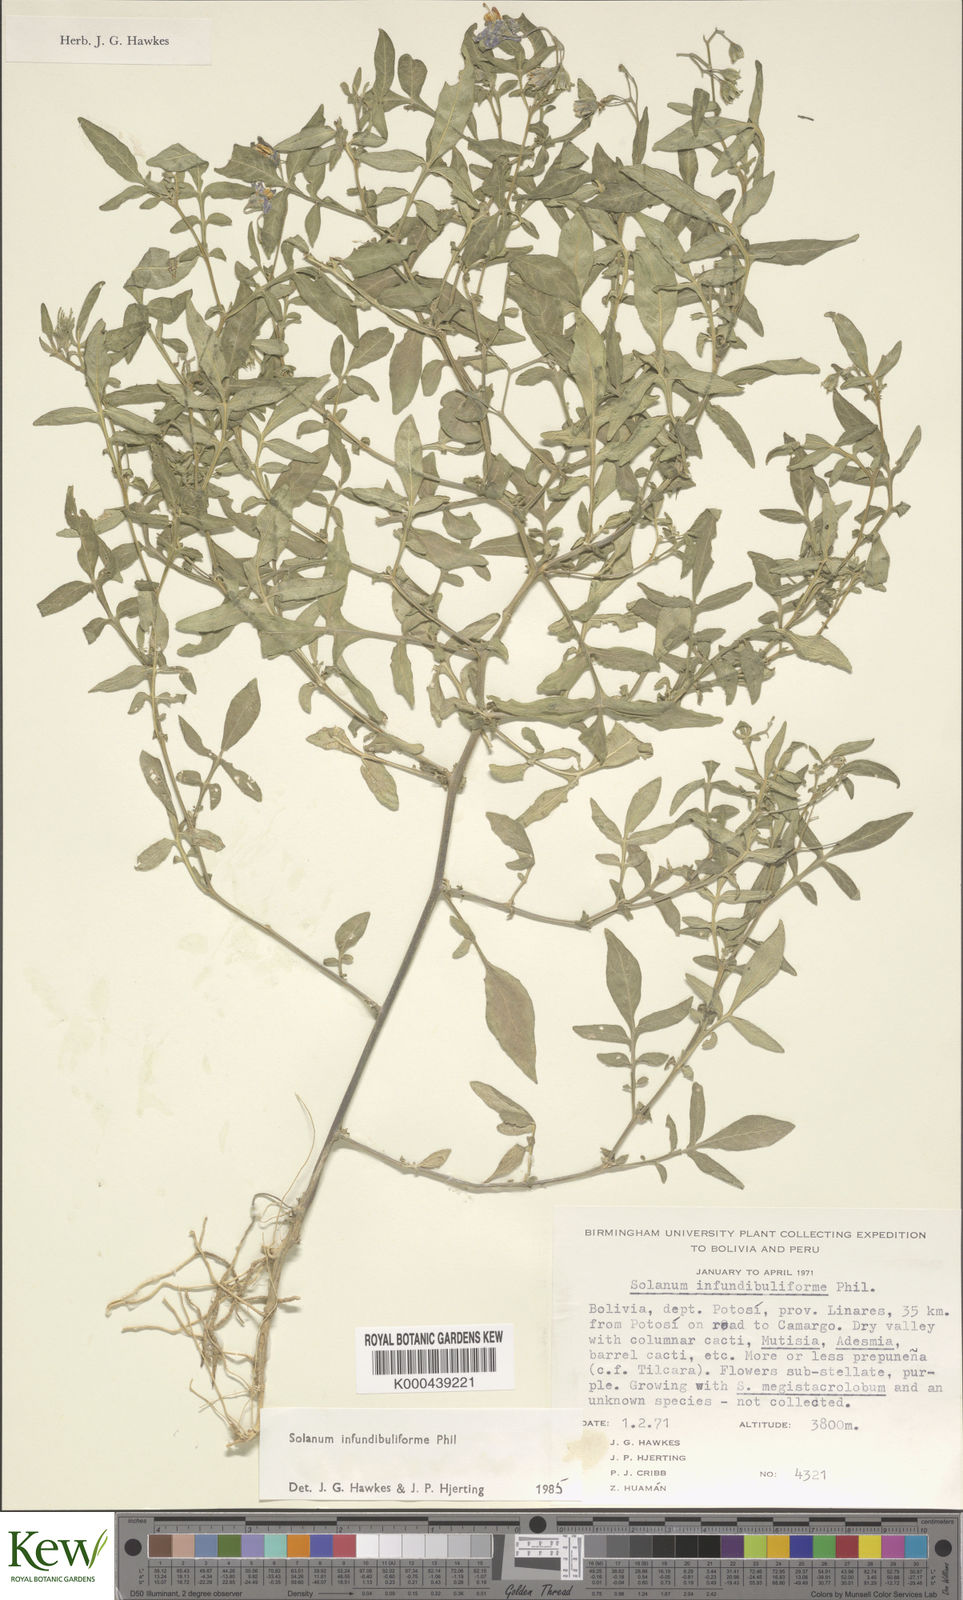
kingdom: Plantae
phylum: Tracheophyta
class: Magnoliopsida
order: Solanales
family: Solanaceae
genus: Solanum
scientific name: Solanum infundibuliforme
